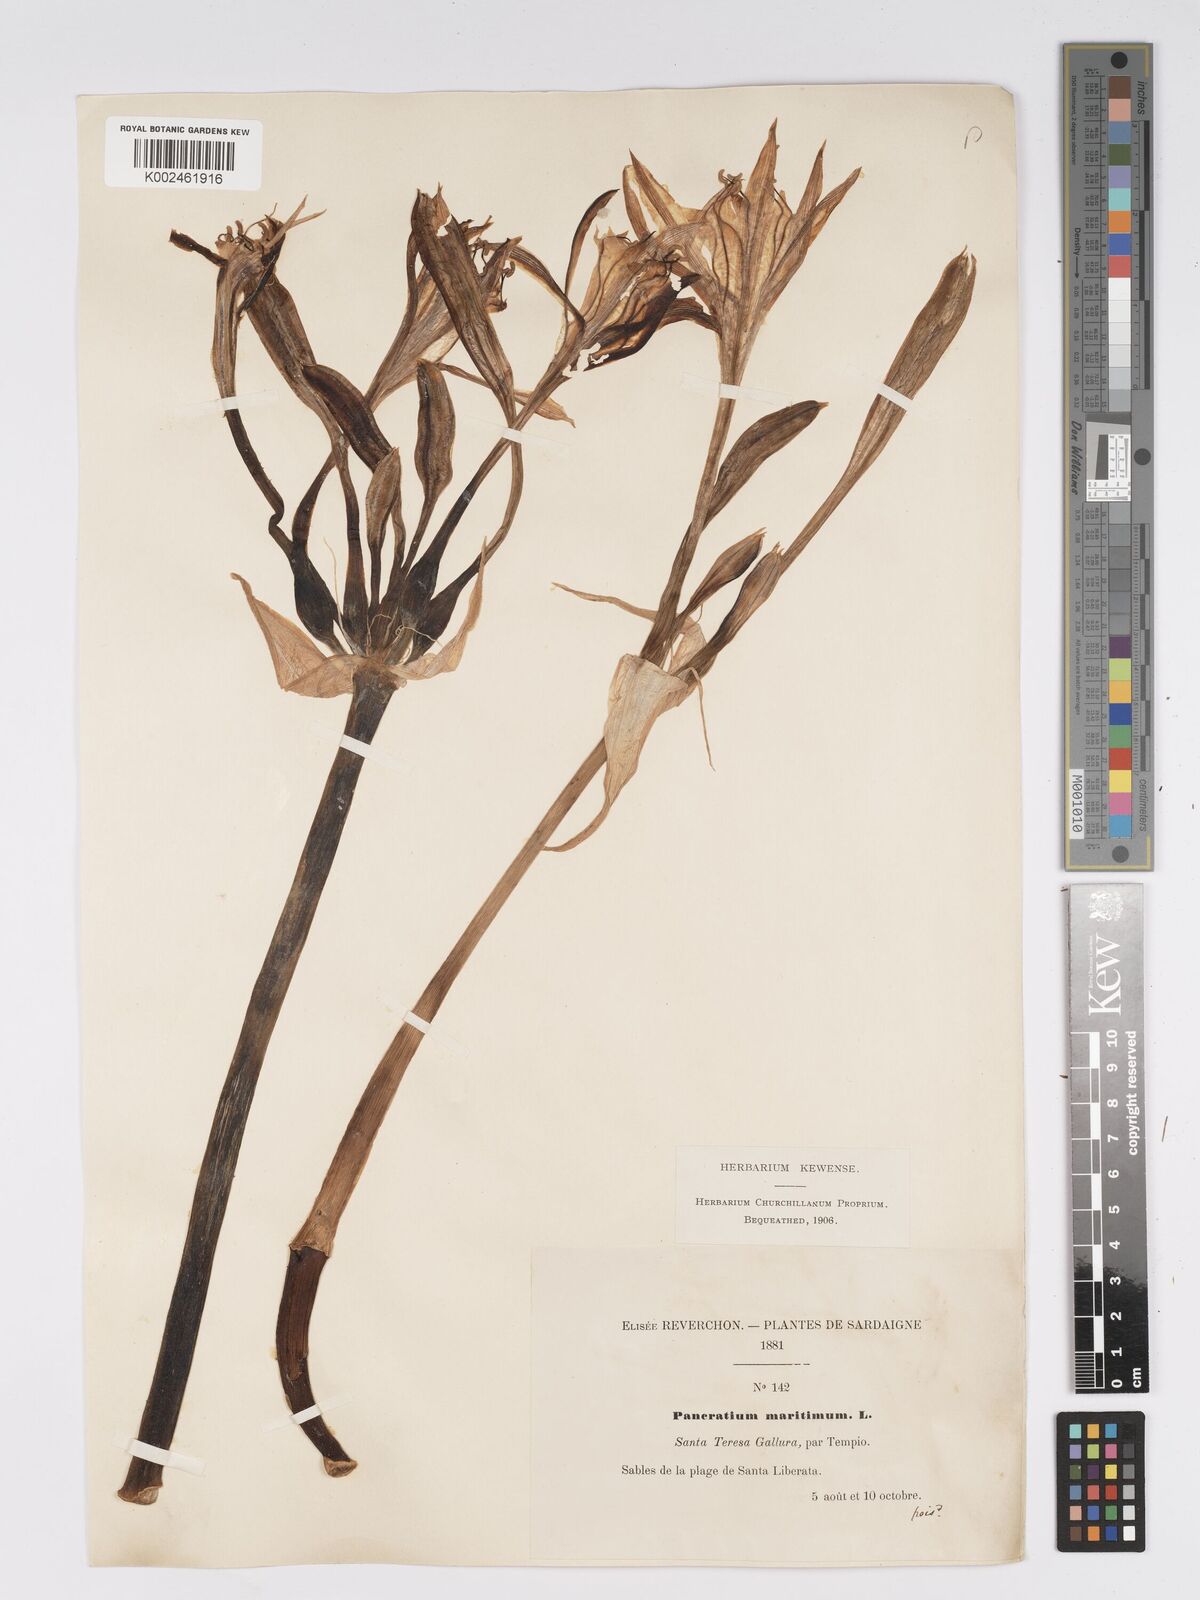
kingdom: Plantae
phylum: Tracheophyta
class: Liliopsida
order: Asparagales
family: Amaryllidaceae
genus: Pancratium
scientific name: Pancratium maritimum
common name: Sea-daffodil
